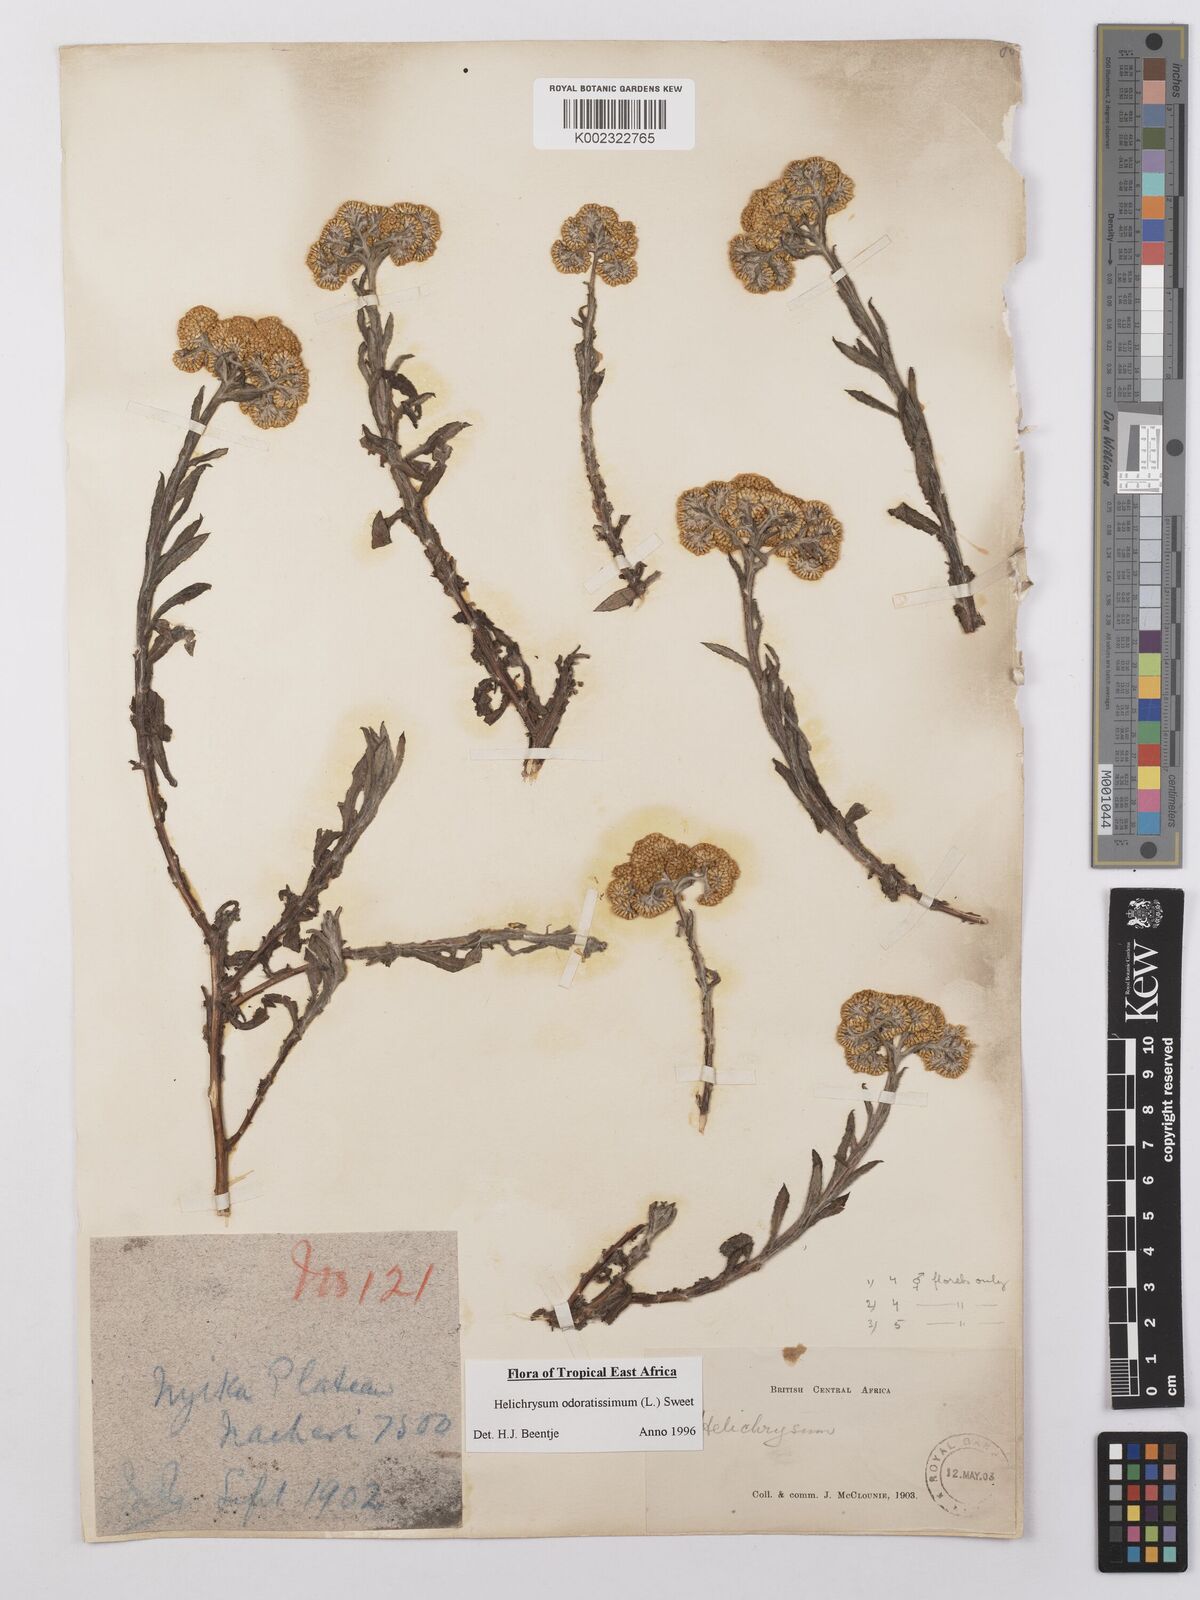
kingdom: Plantae
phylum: Tracheophyta
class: Magnoliopsida
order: Asterales
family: Asteraceae
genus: Helichrysum
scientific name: Helichrysum odoratissimum
